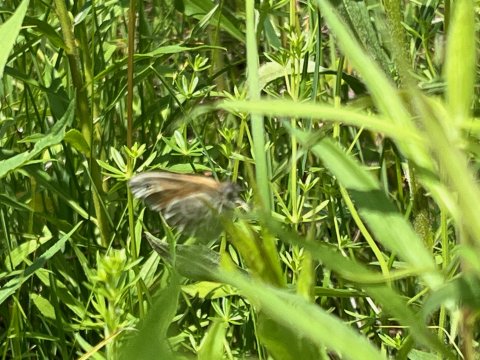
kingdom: Animalia
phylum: Arthropoda
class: Insecta
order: Lepidoptera
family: Nymphalidae
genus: Coenonympha
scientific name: Coenonympha tullia
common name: Large Heath
